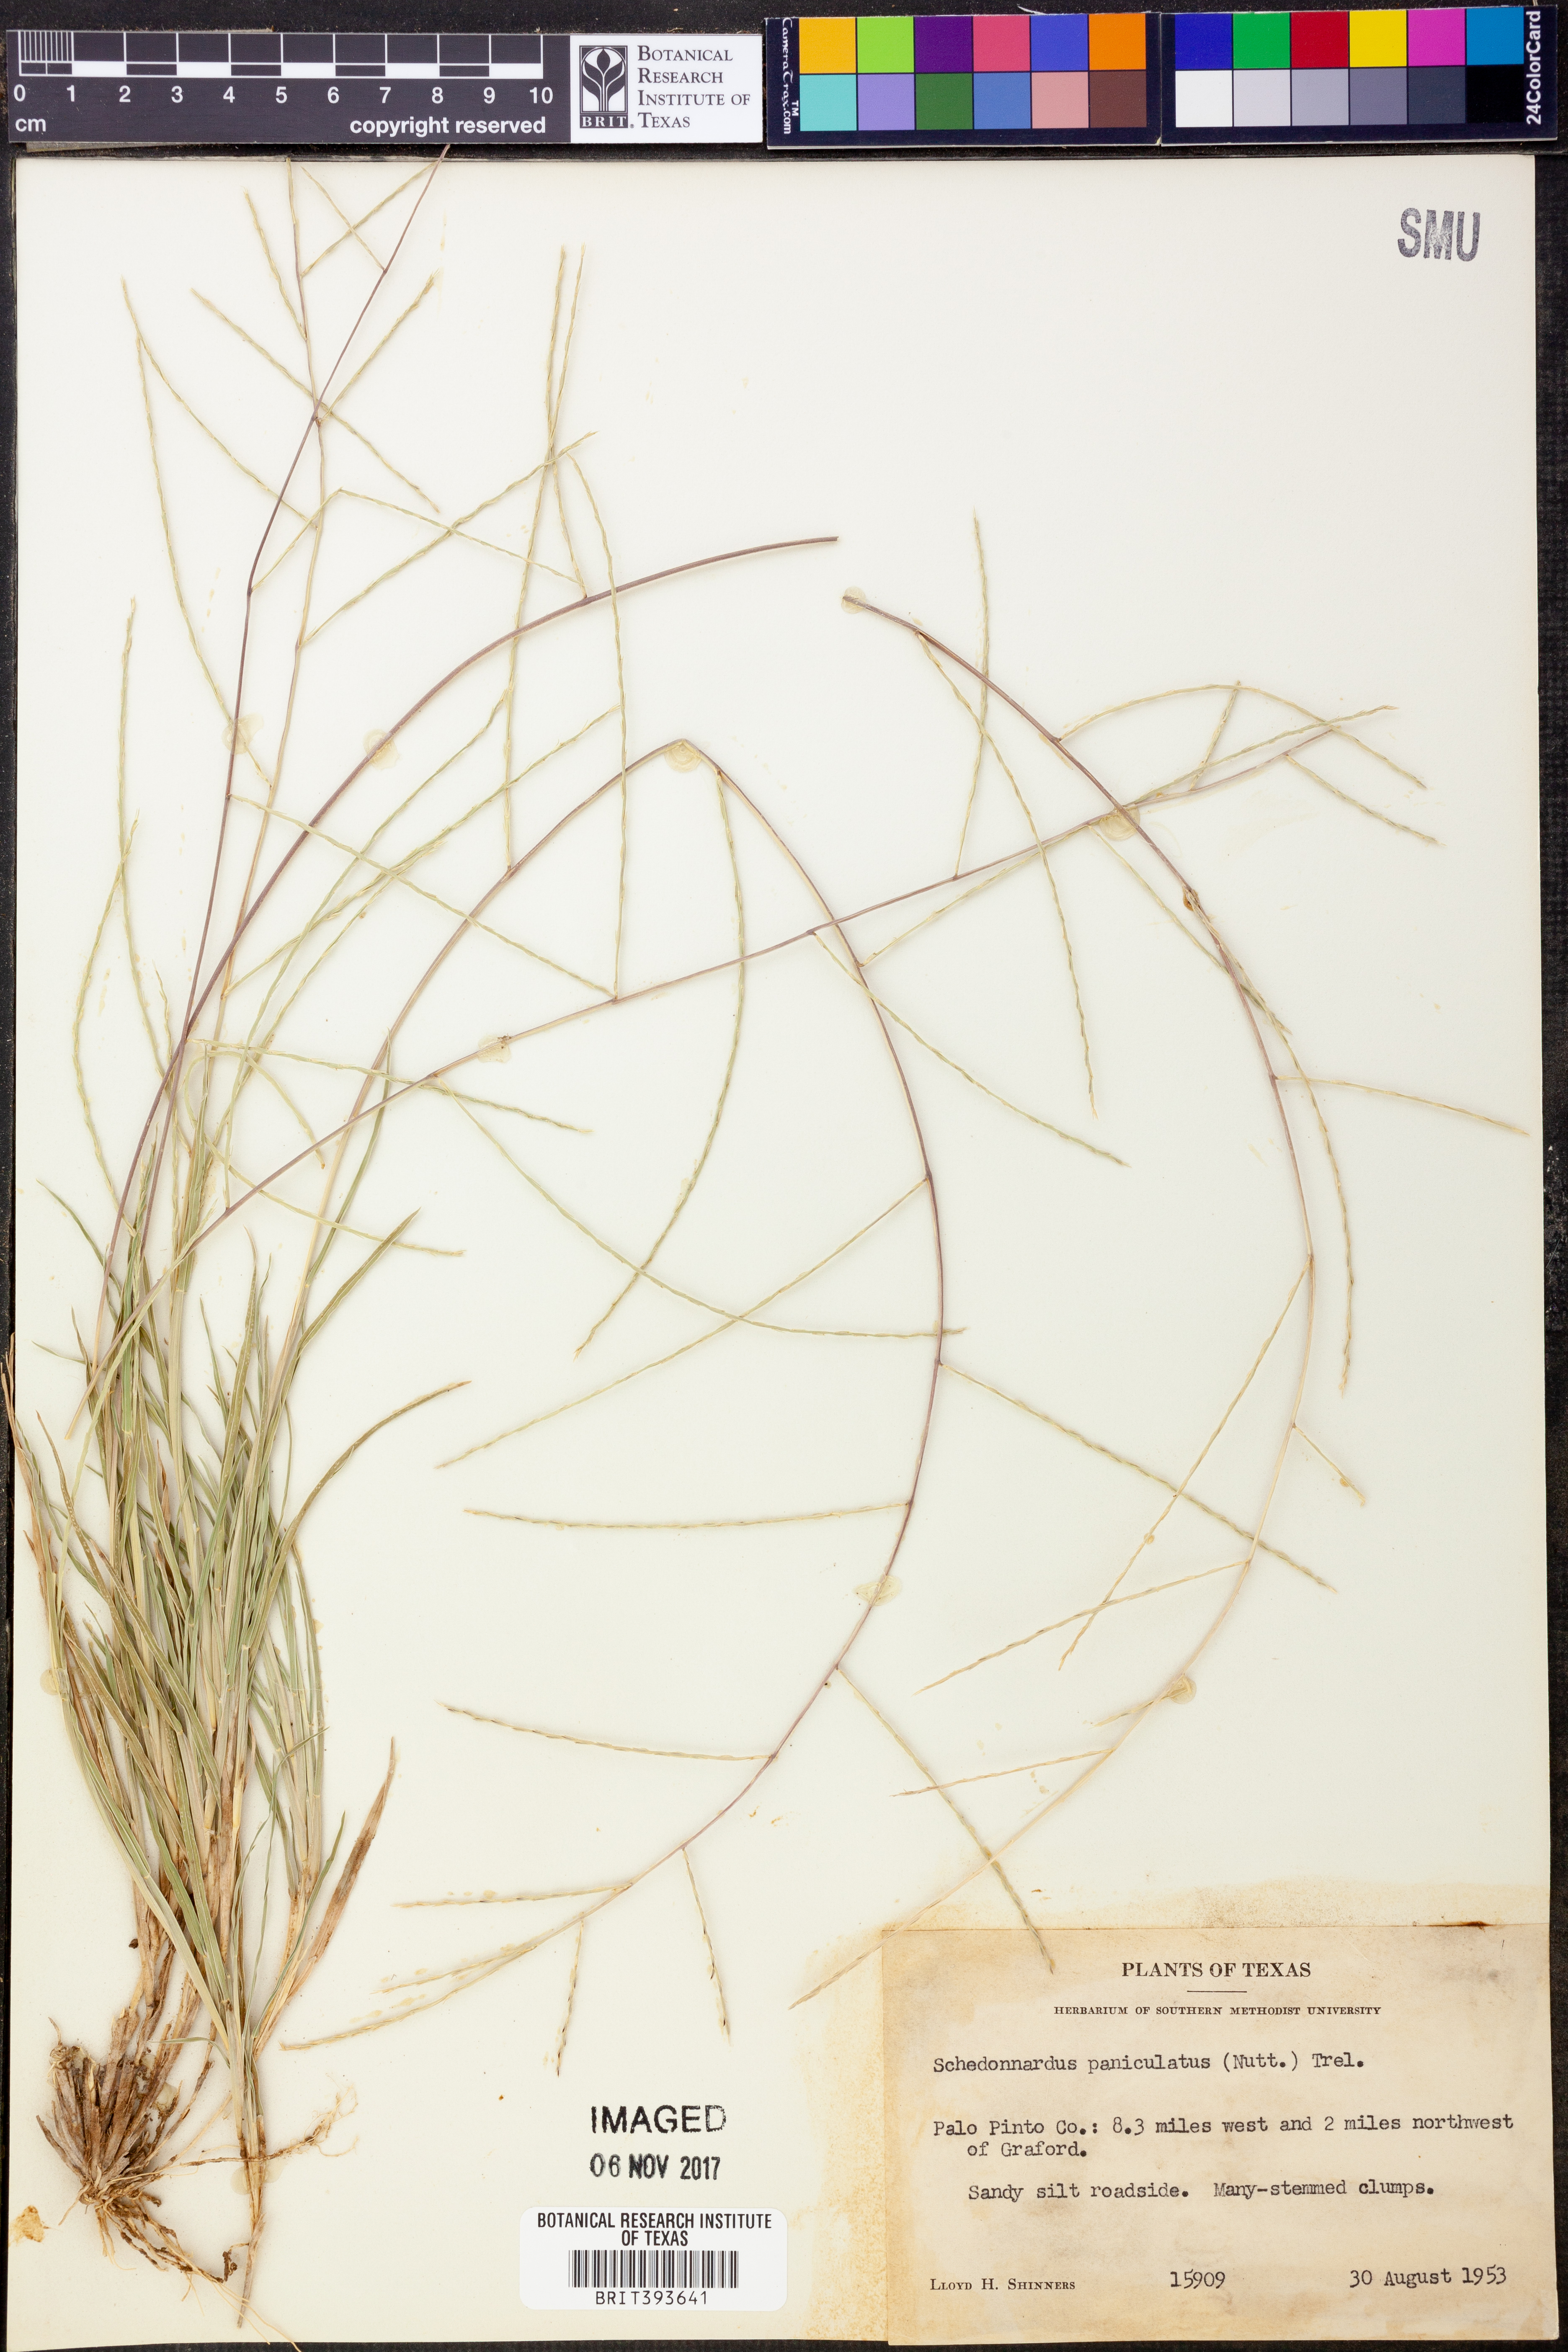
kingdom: Plantae
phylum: Tracheophyta
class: Liliopsida
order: Poales
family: Poaceae
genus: Muhlenbergia
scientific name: Muhlenbergia paniculata
